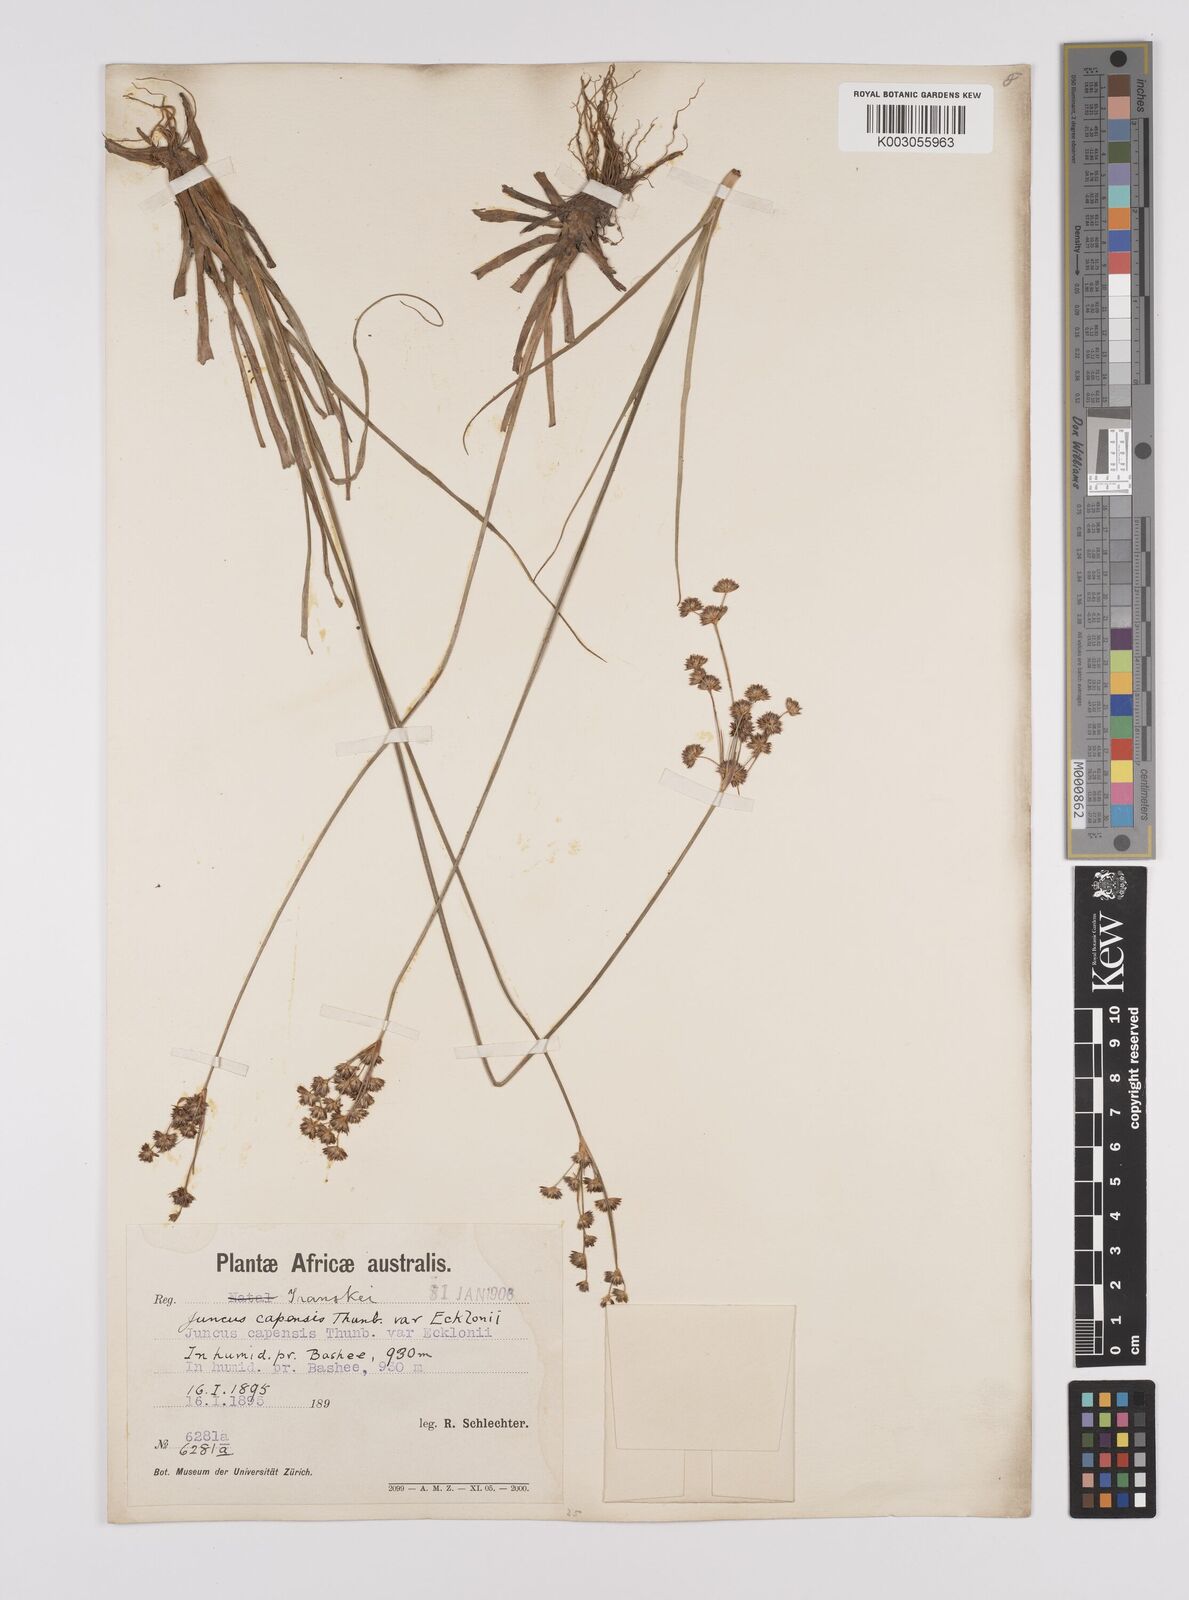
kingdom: Plantae
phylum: Tracheophyta
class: Liliopsida
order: Poales
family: Juncaceae
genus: Juncus
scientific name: Juncus capensis
